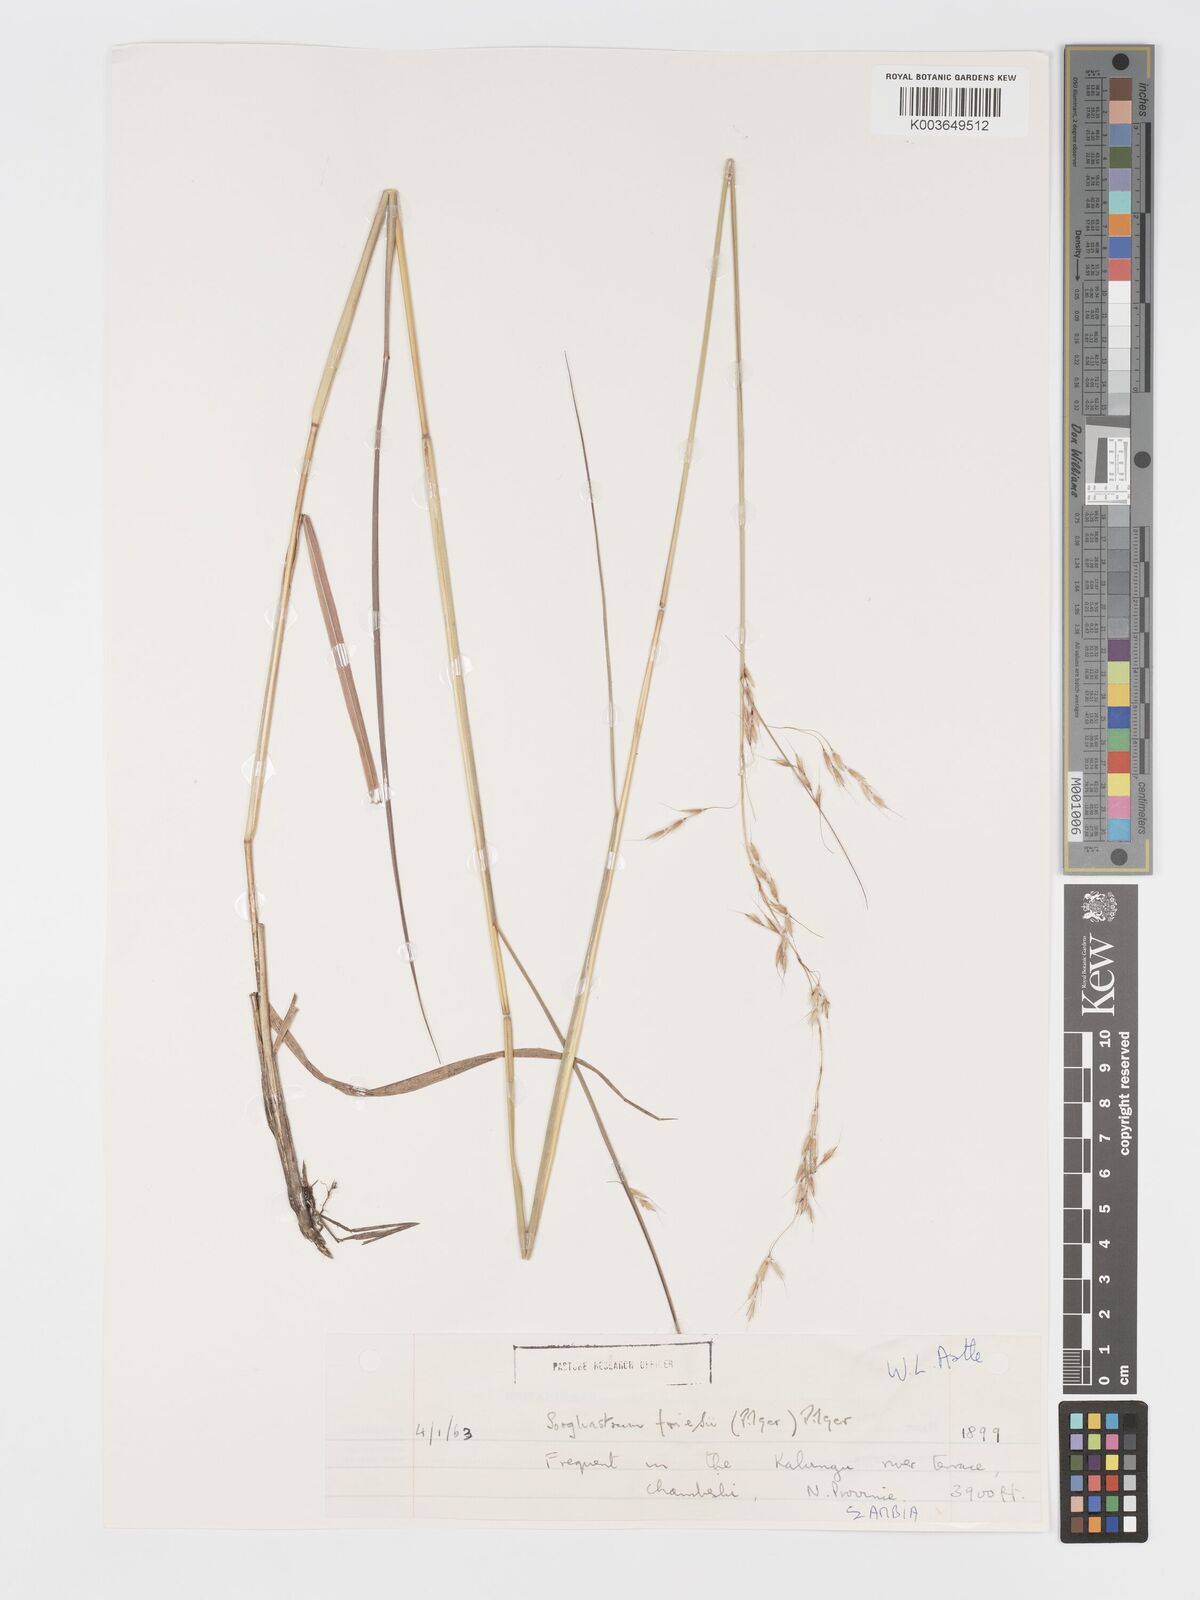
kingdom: Plantae
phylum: Tracheophyta
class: Liliopsida
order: Poales
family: Poaceae
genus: Sorghastrum
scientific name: Sorghastrum nudipes
